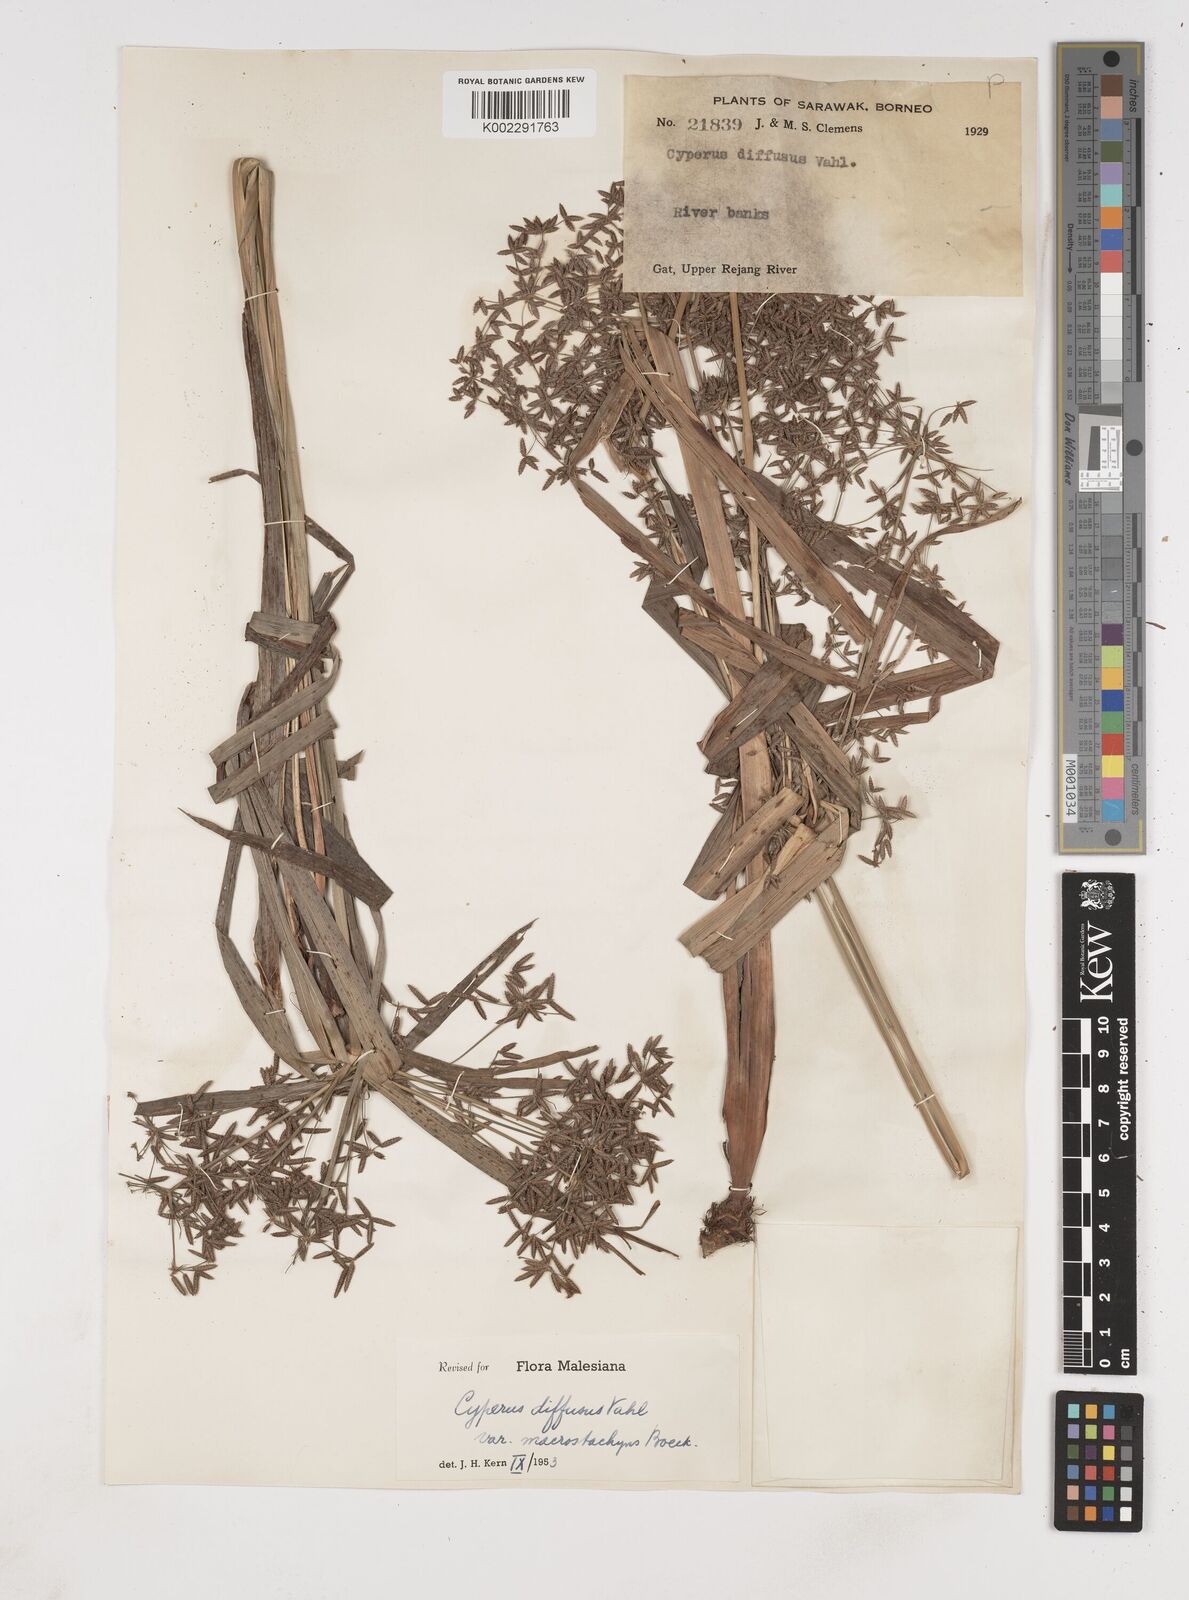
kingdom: Plantae
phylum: Tracheophyta
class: Liliopsida
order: Poales
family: Cyperaceae
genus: Cyperus
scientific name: Cyperus diffusus
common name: Dwarf umbrella grass
